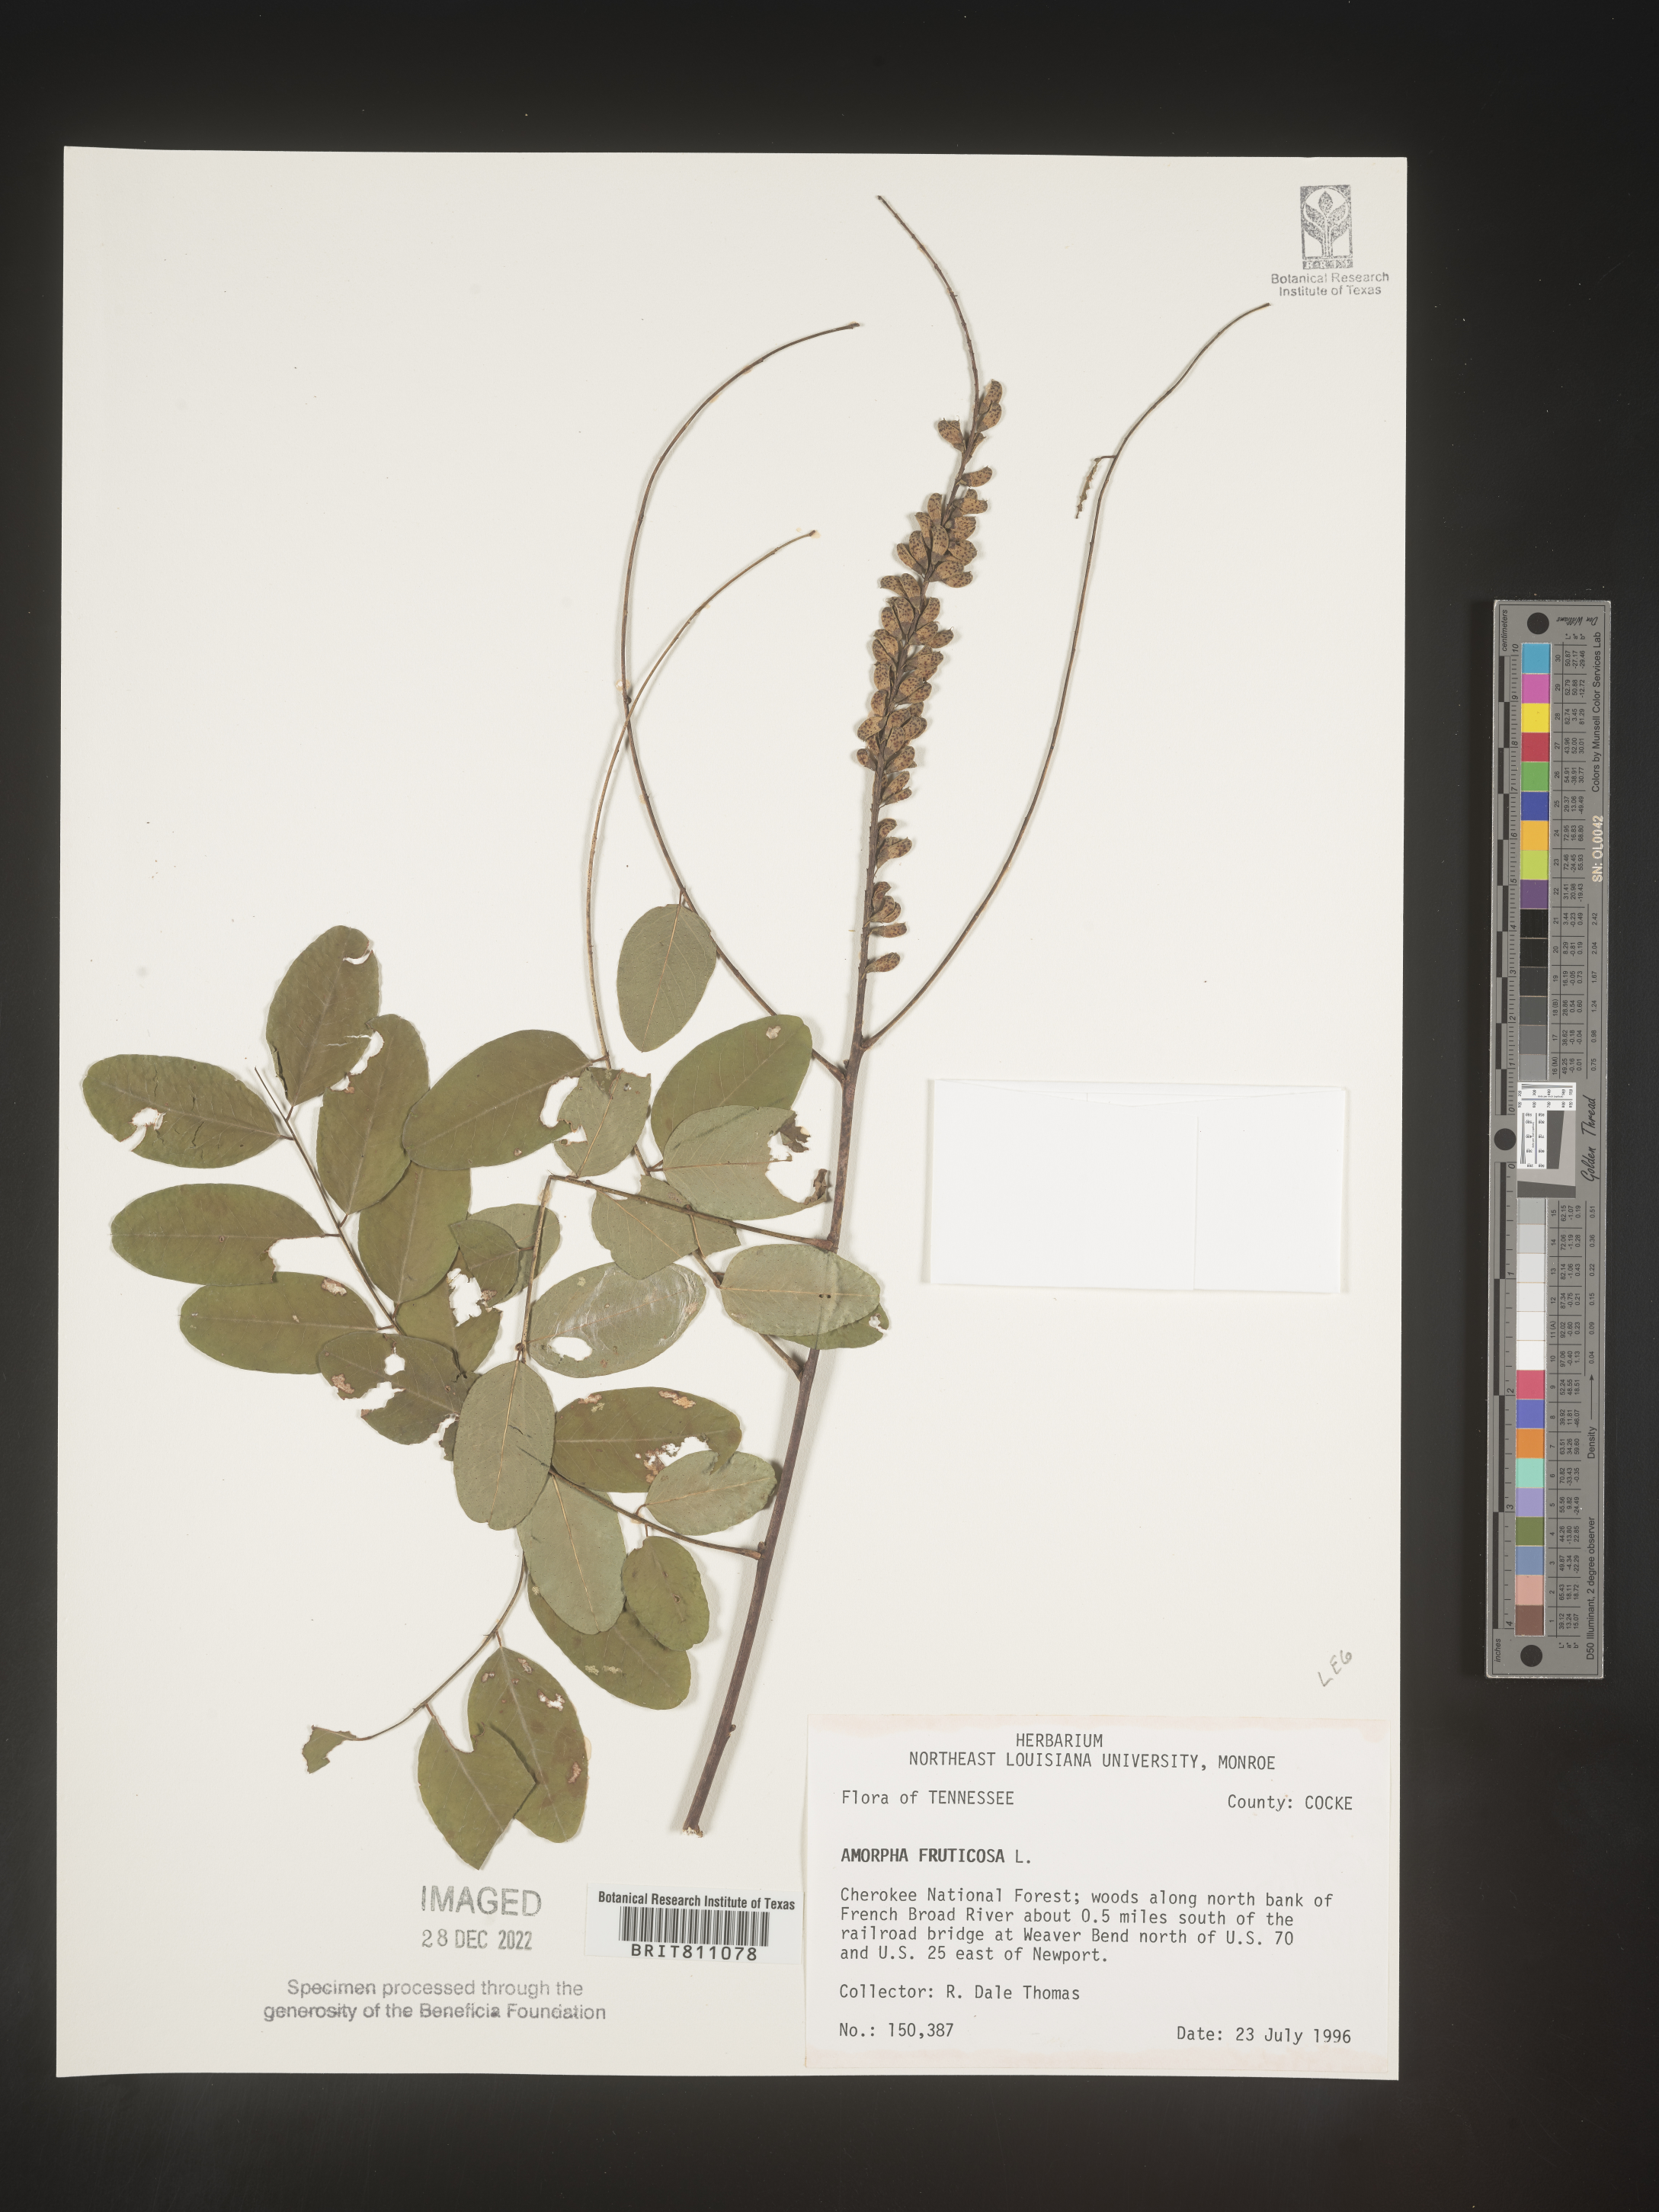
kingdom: Plantae
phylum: Tracheophyta
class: Magnoliopsida
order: Fabales
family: Fabaceae
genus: Amorpha
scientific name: Amorpha fruticosa
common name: False indigo
